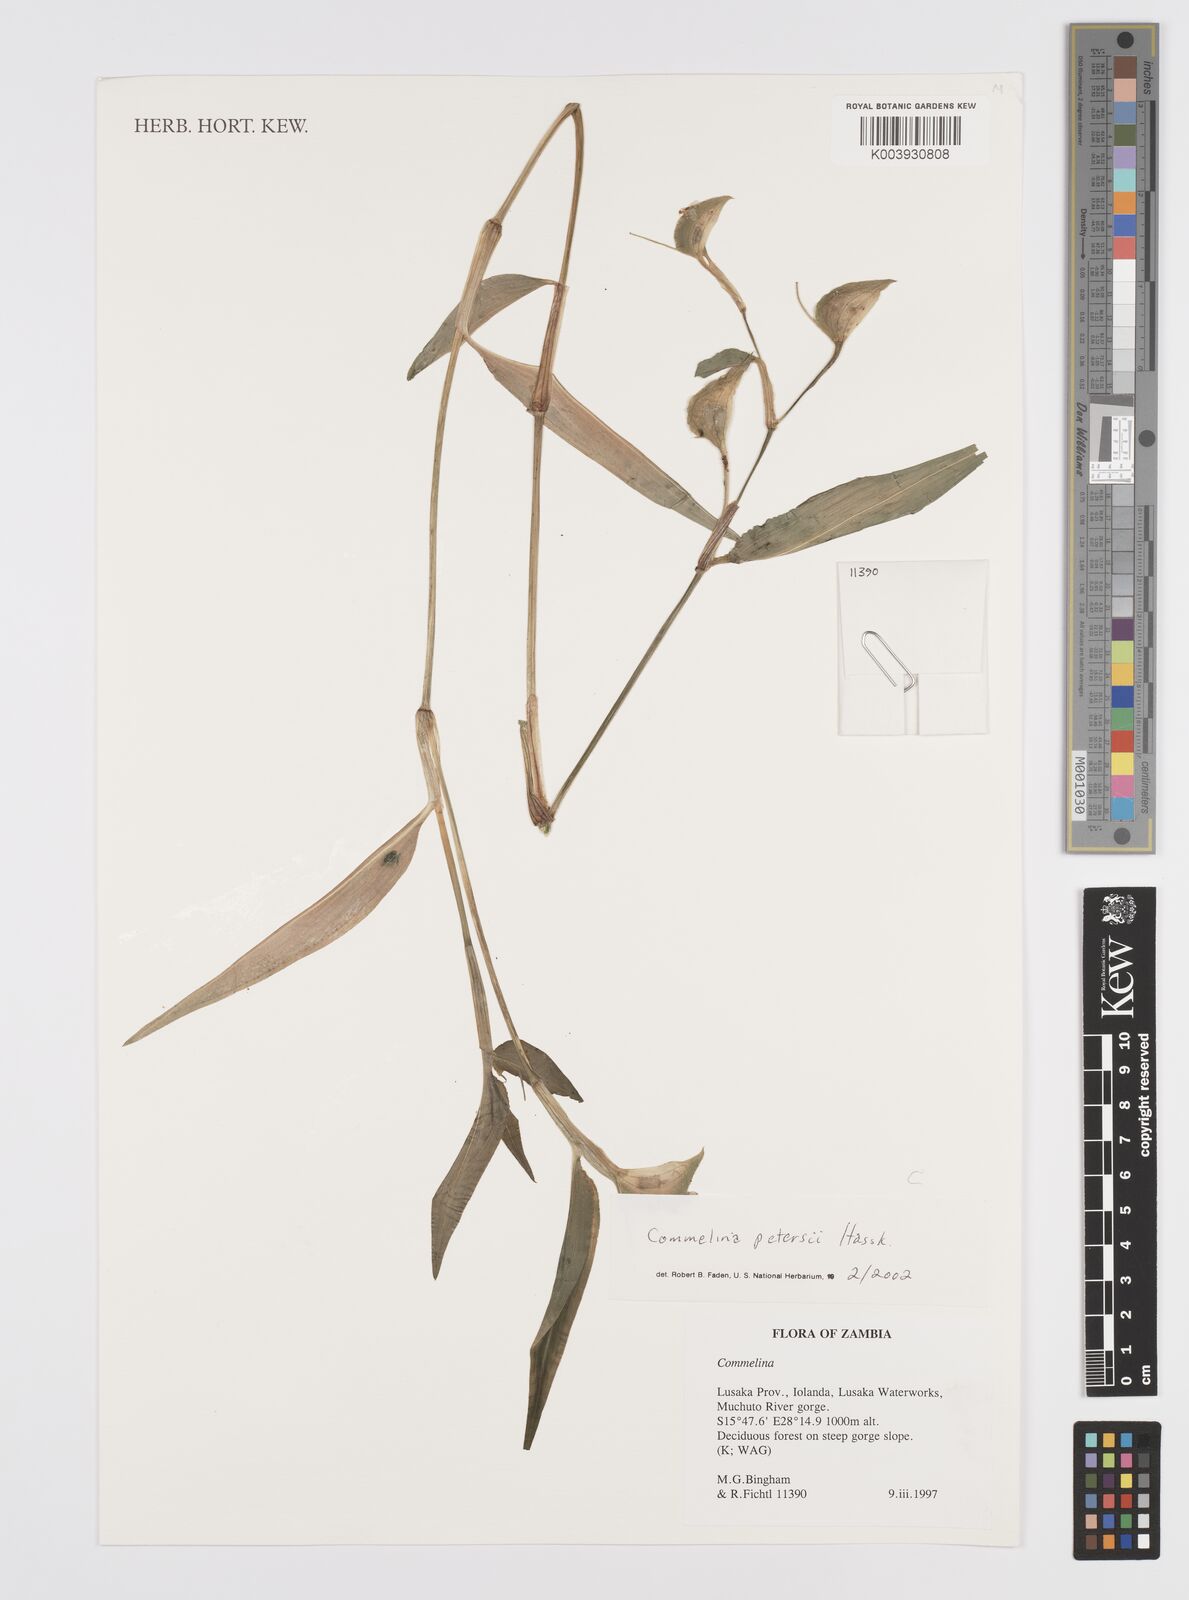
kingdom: Plantae
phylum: Tracheophyta
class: Liliopsida
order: Commelinales
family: Commelinaceae
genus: Commelina
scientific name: Commelina petersii
